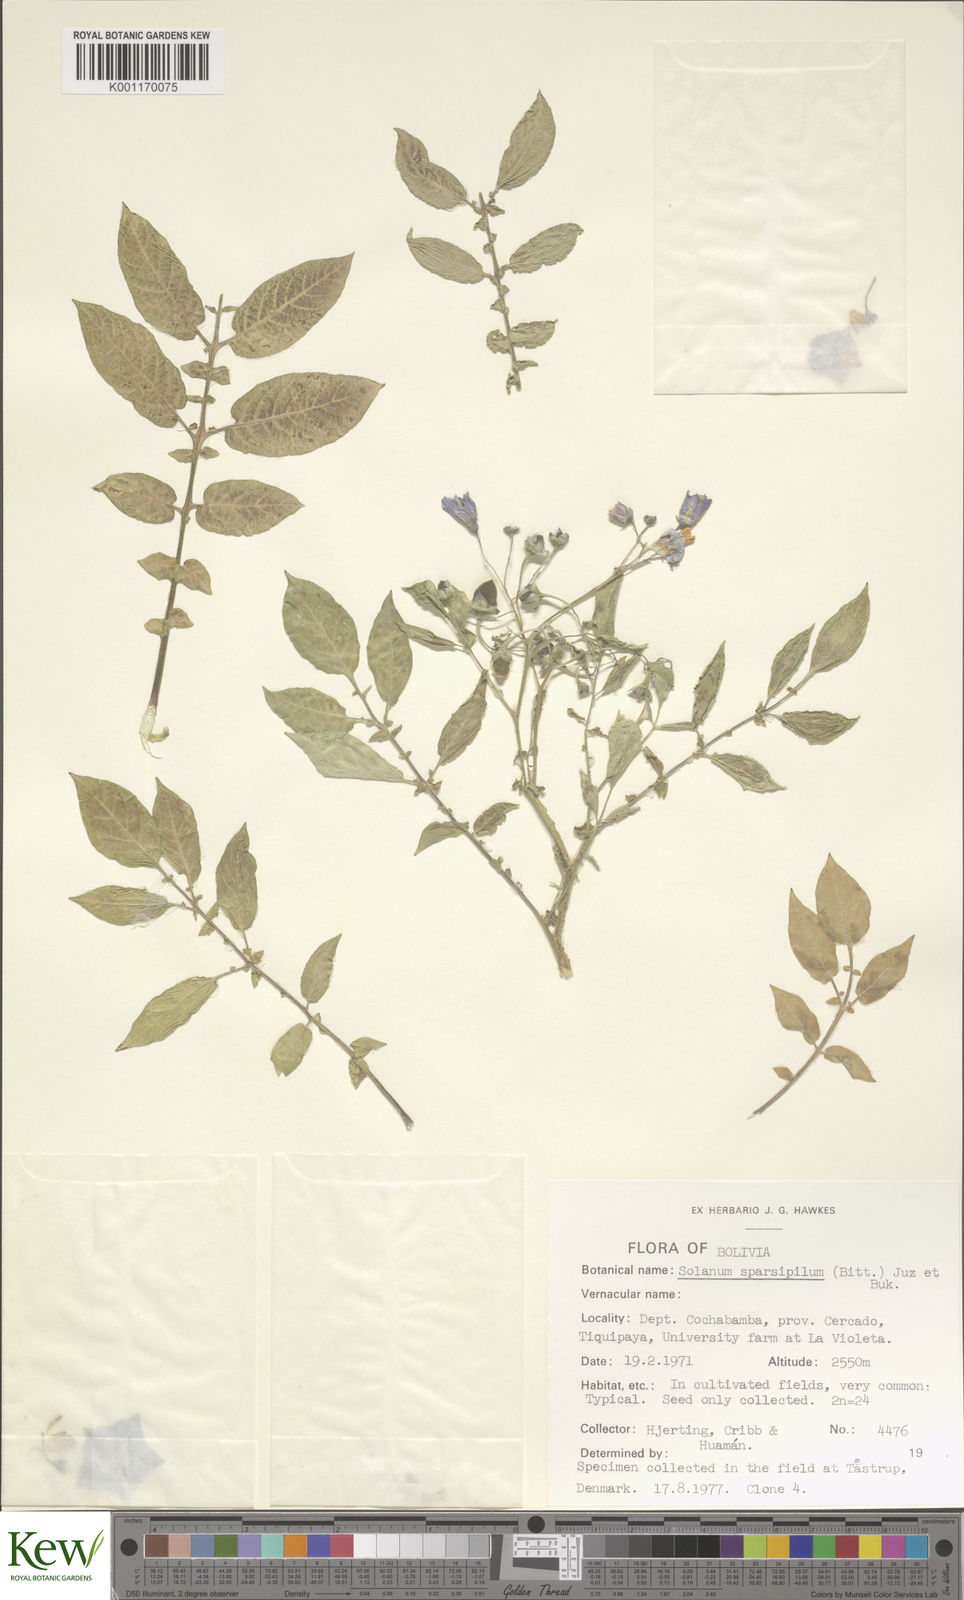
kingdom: Plantae
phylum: Tracheophyta
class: Magnoliopsida
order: Solanales
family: Solanaceae
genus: Solanum
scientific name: Solanum brevicaule
